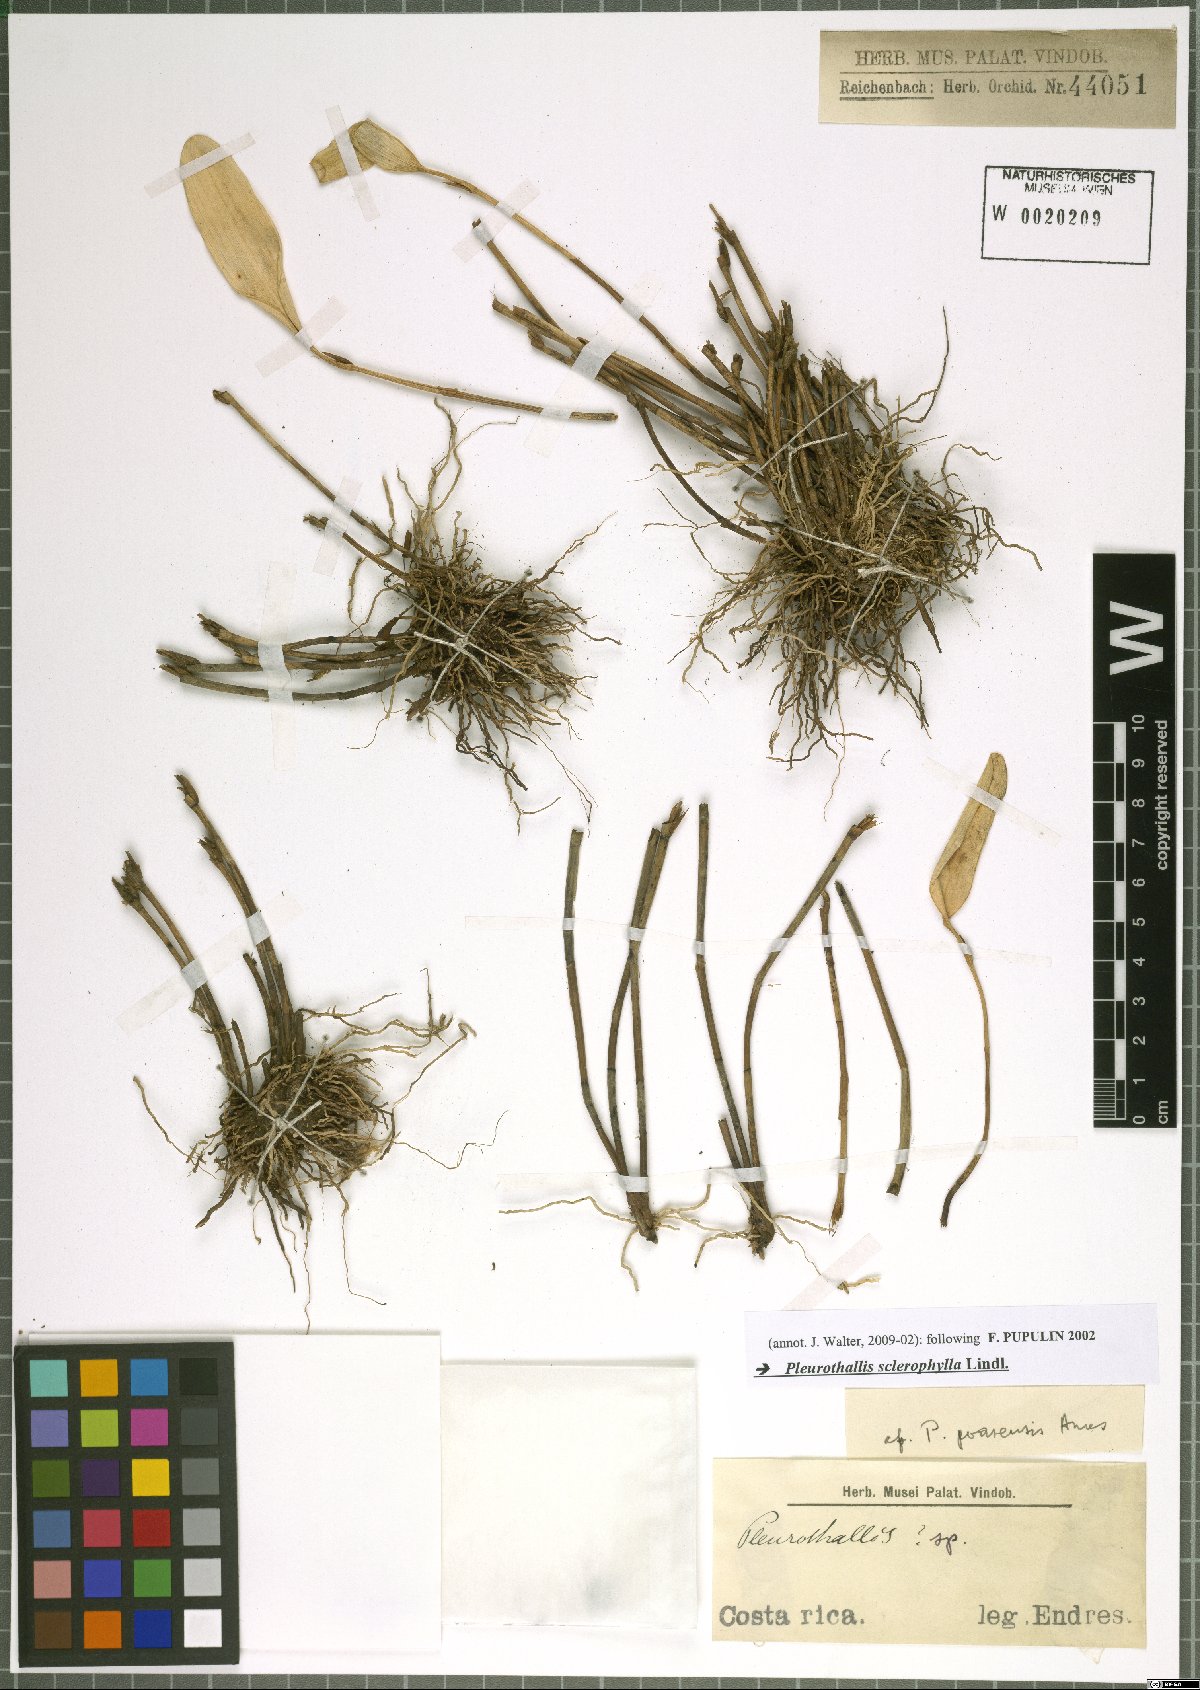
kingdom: Plantae
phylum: Tracheophyta
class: Liliopsida
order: Asparagales
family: Orchidaceae
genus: Stelis
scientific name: Stelis sclerophylla
